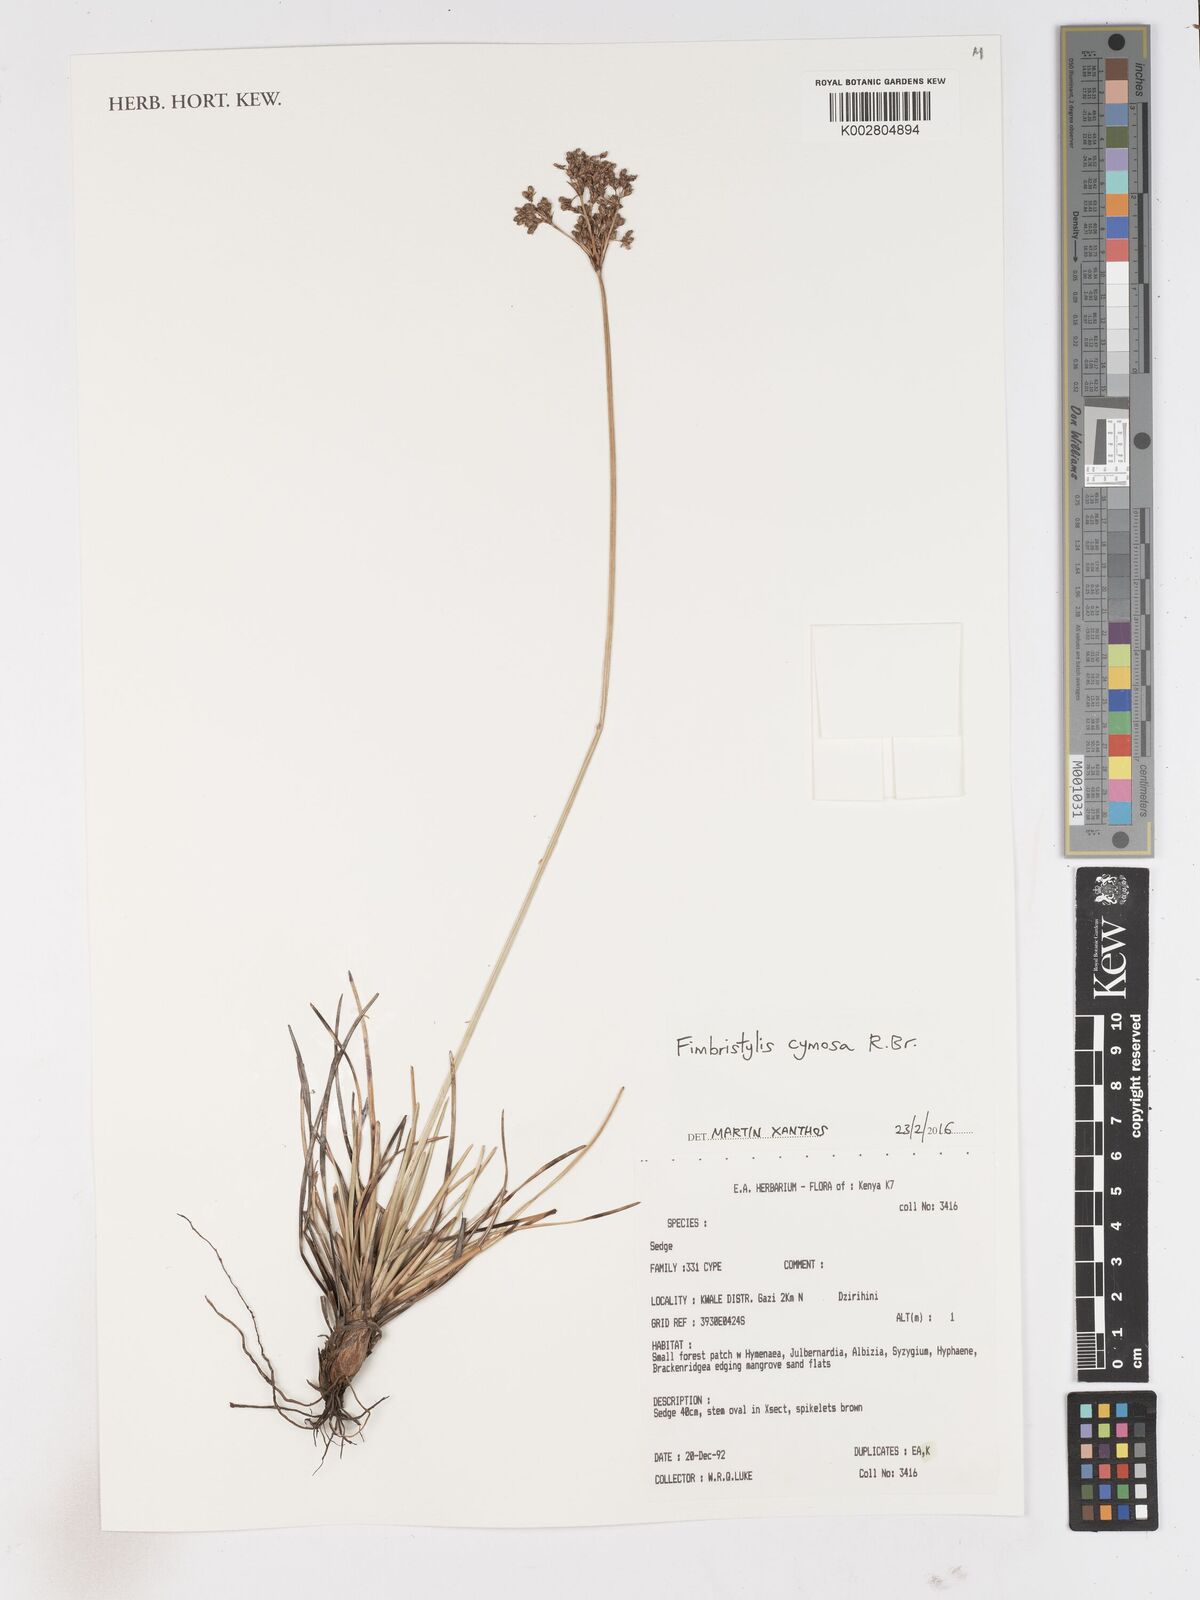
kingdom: Plantae
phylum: Tracheophyta
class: Liliopsida
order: Poales
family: Cyperaceae
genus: Fimbristylis
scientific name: Fimbristylis cymosa
